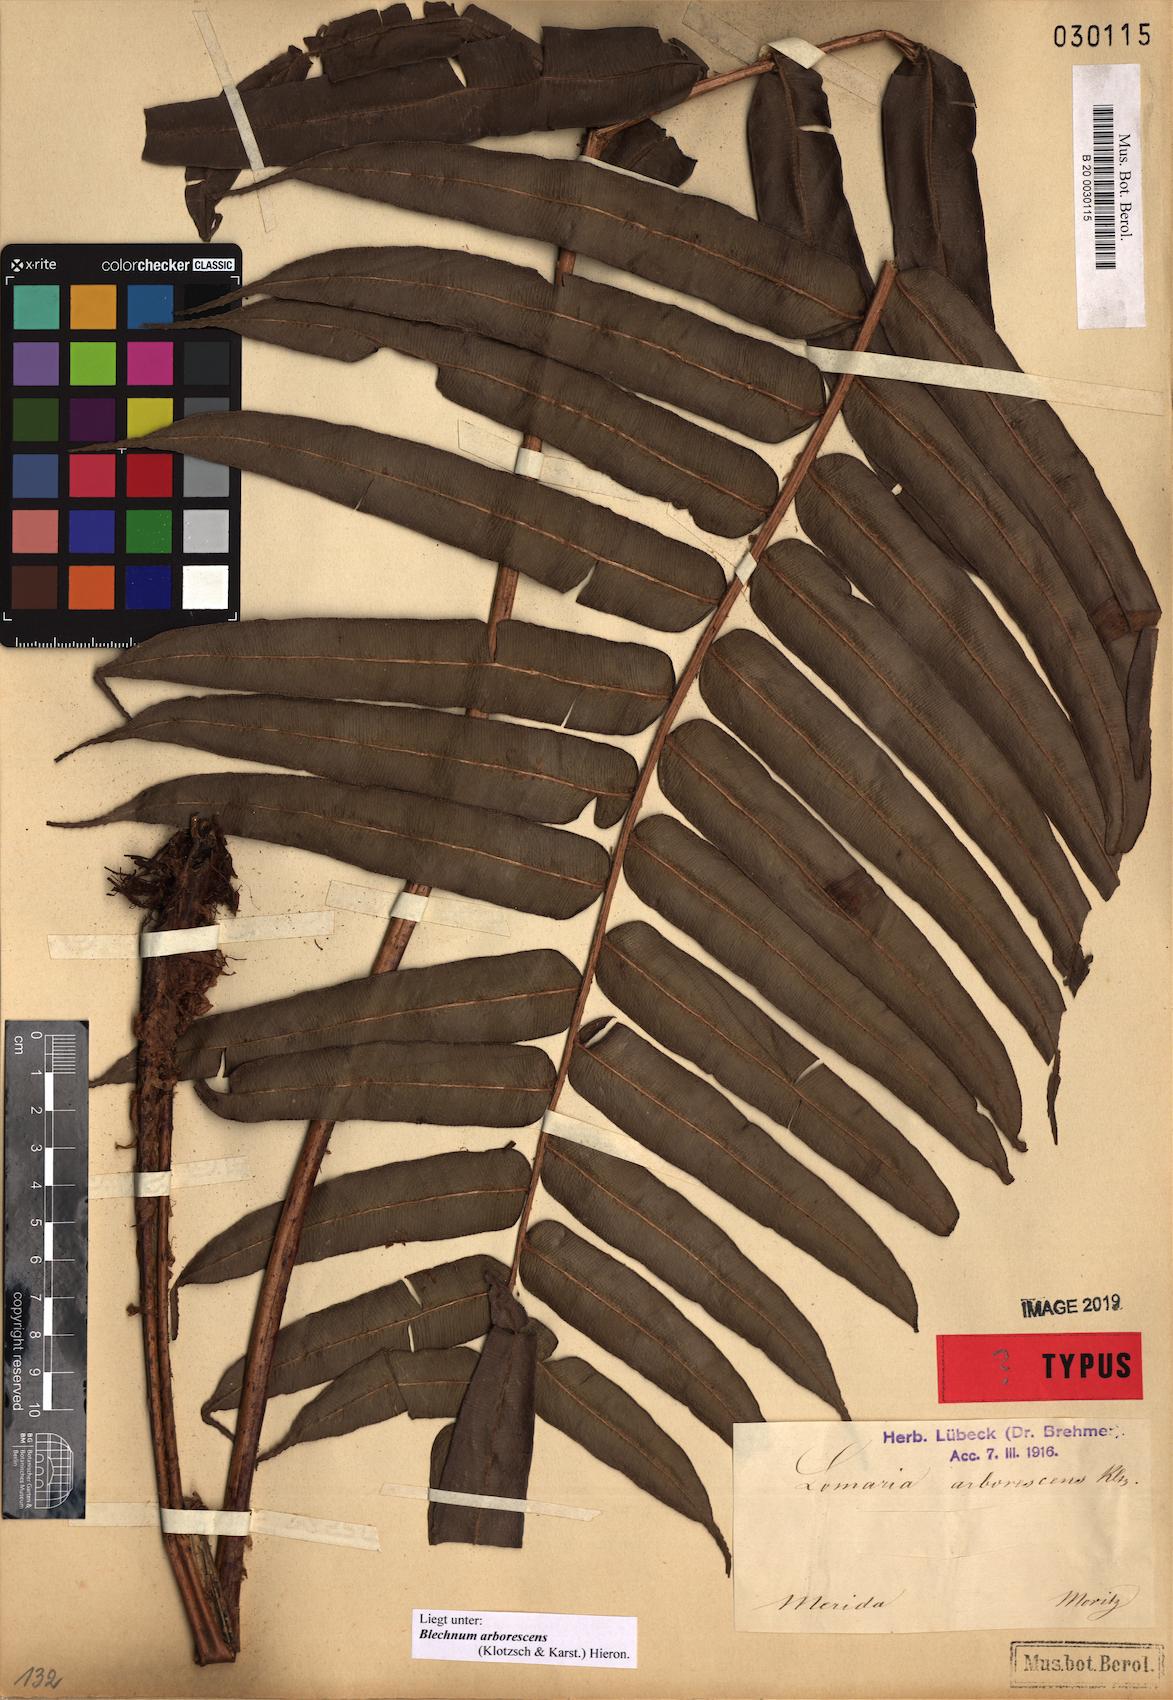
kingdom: Plantae
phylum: Tracheophyta
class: Polypodiopsida
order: Polypodiales
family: Blechnaceae
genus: Parablechnum
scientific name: Parablechnum cordatum
